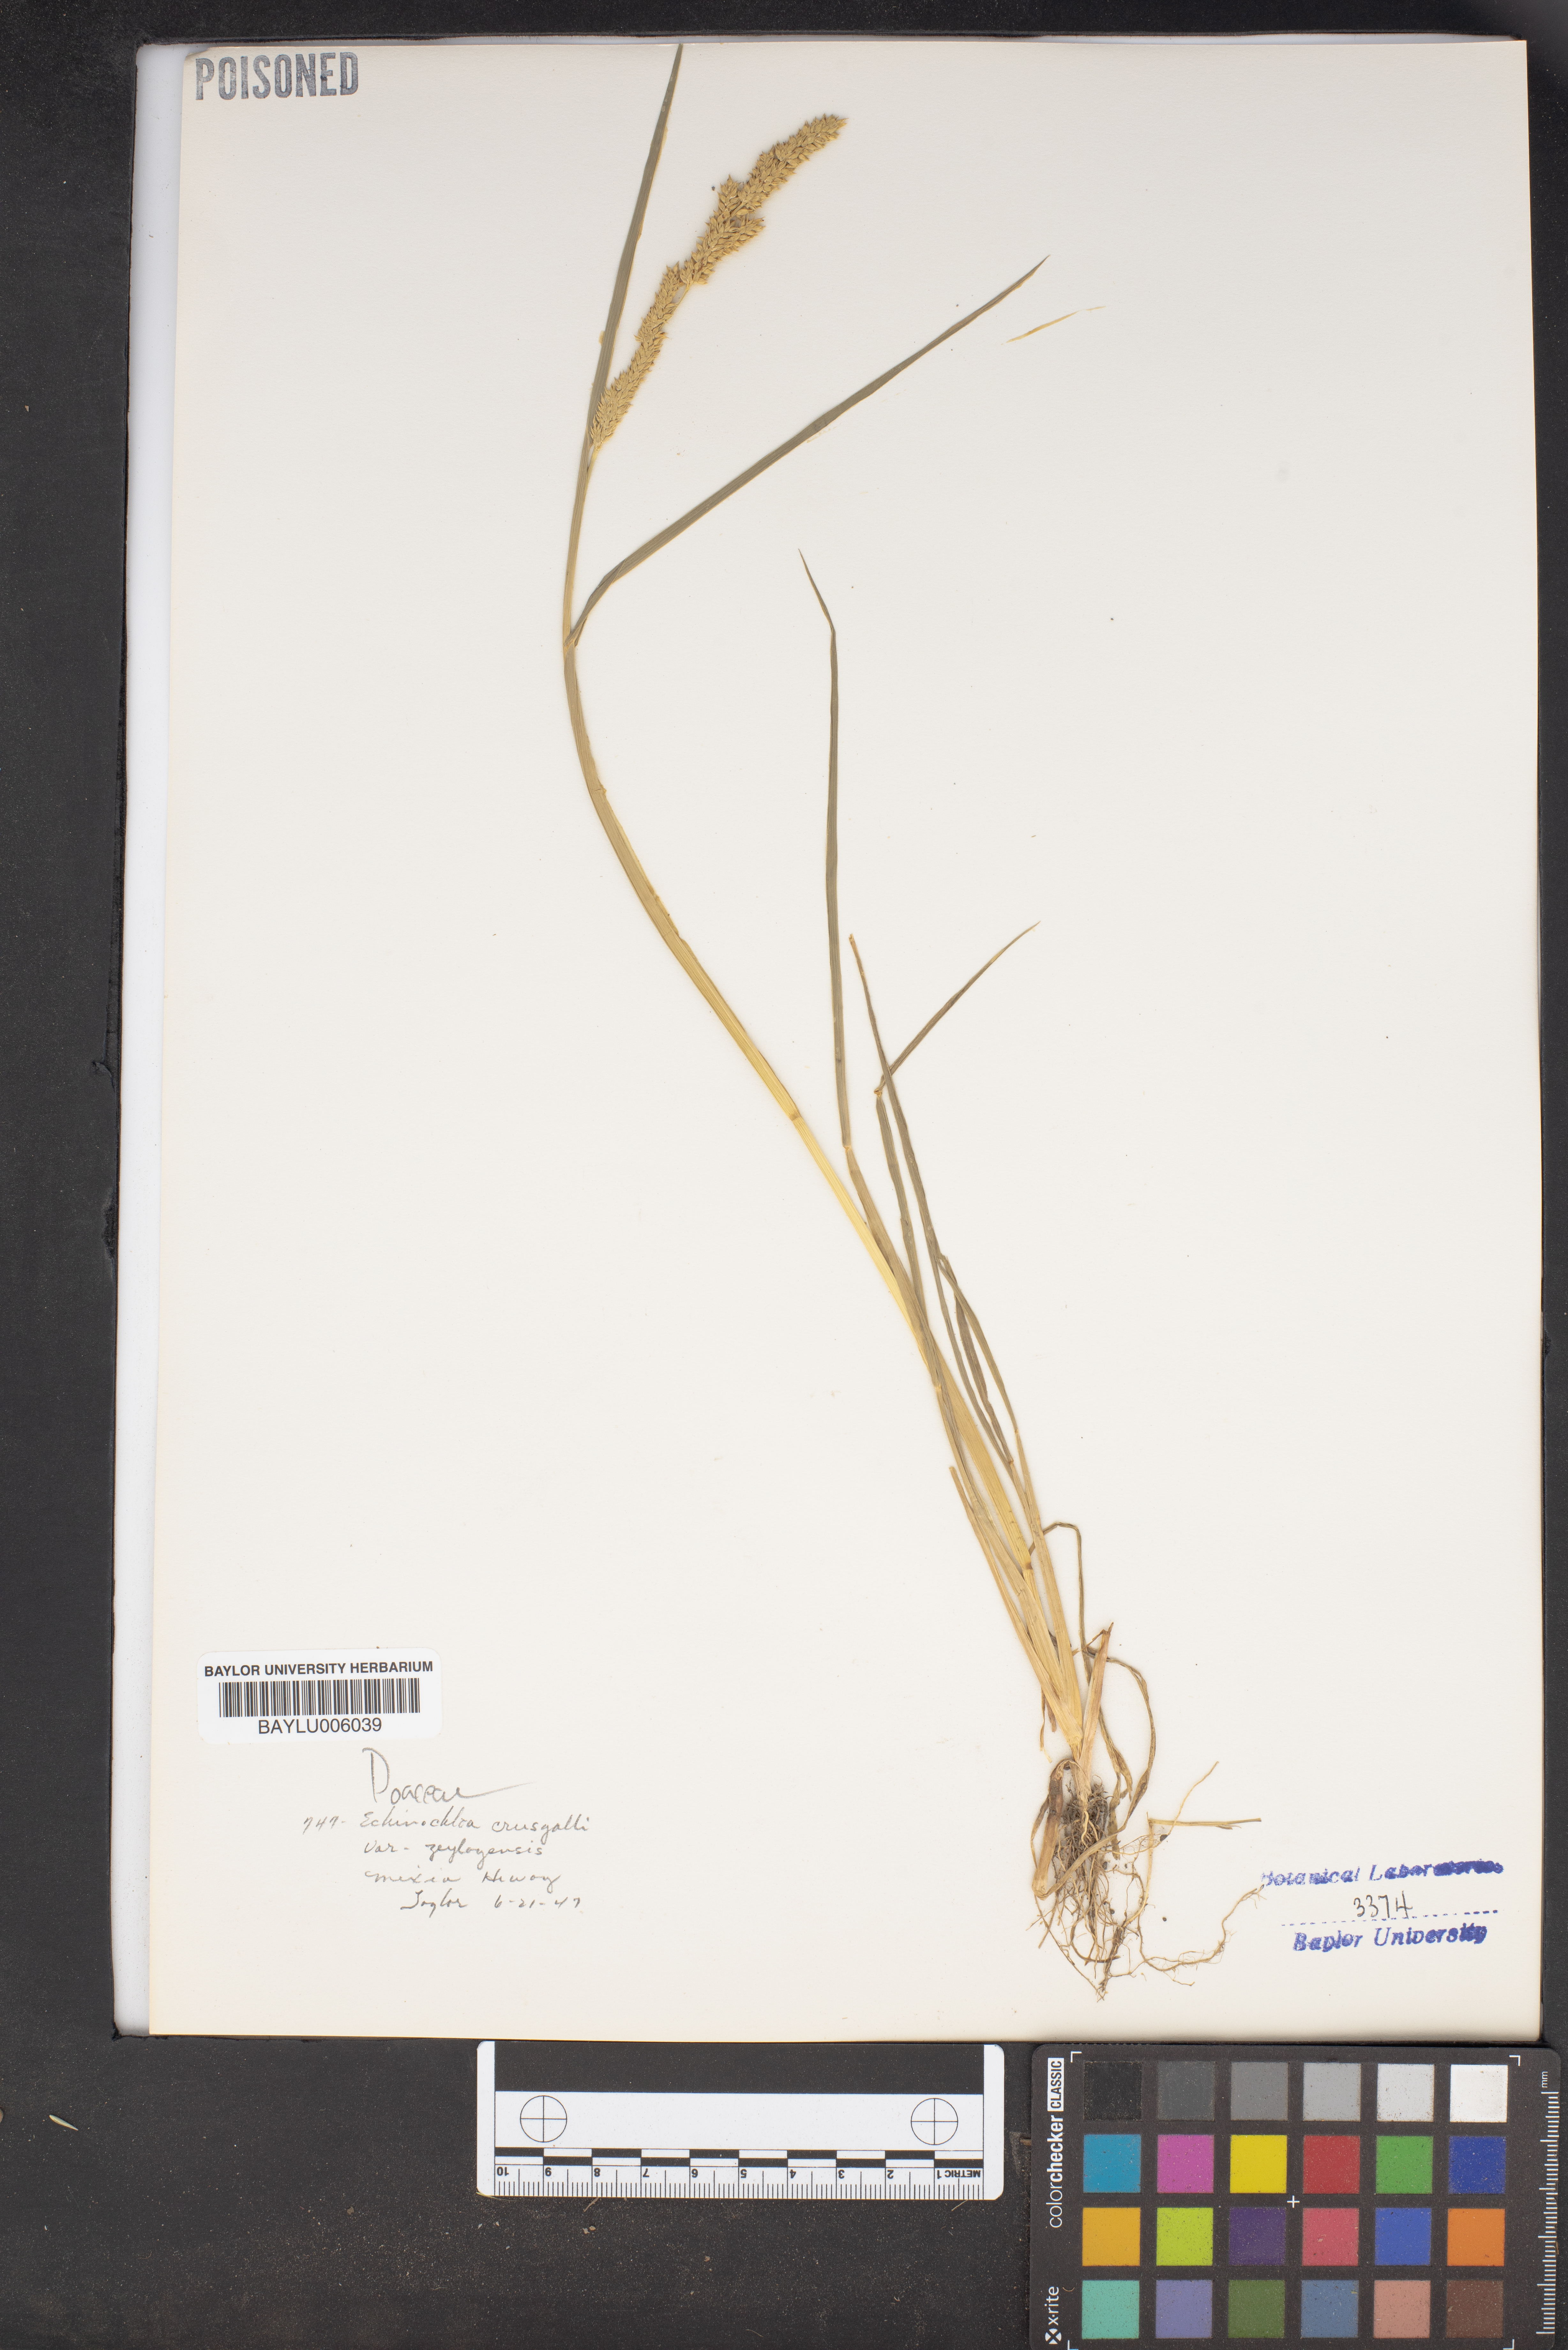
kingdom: Plantae
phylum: Tracheophyta
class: Liliopsida
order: Poales
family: Poaceae
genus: Echinochloa
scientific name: Echinochloa crus-galli
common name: Cockspur
